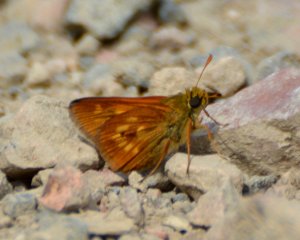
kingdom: Animalia
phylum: Arthropoda
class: Insecta
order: Lepidoptera
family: Hesperiidae
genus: Polites
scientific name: Polites
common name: Long Dash Skipper
